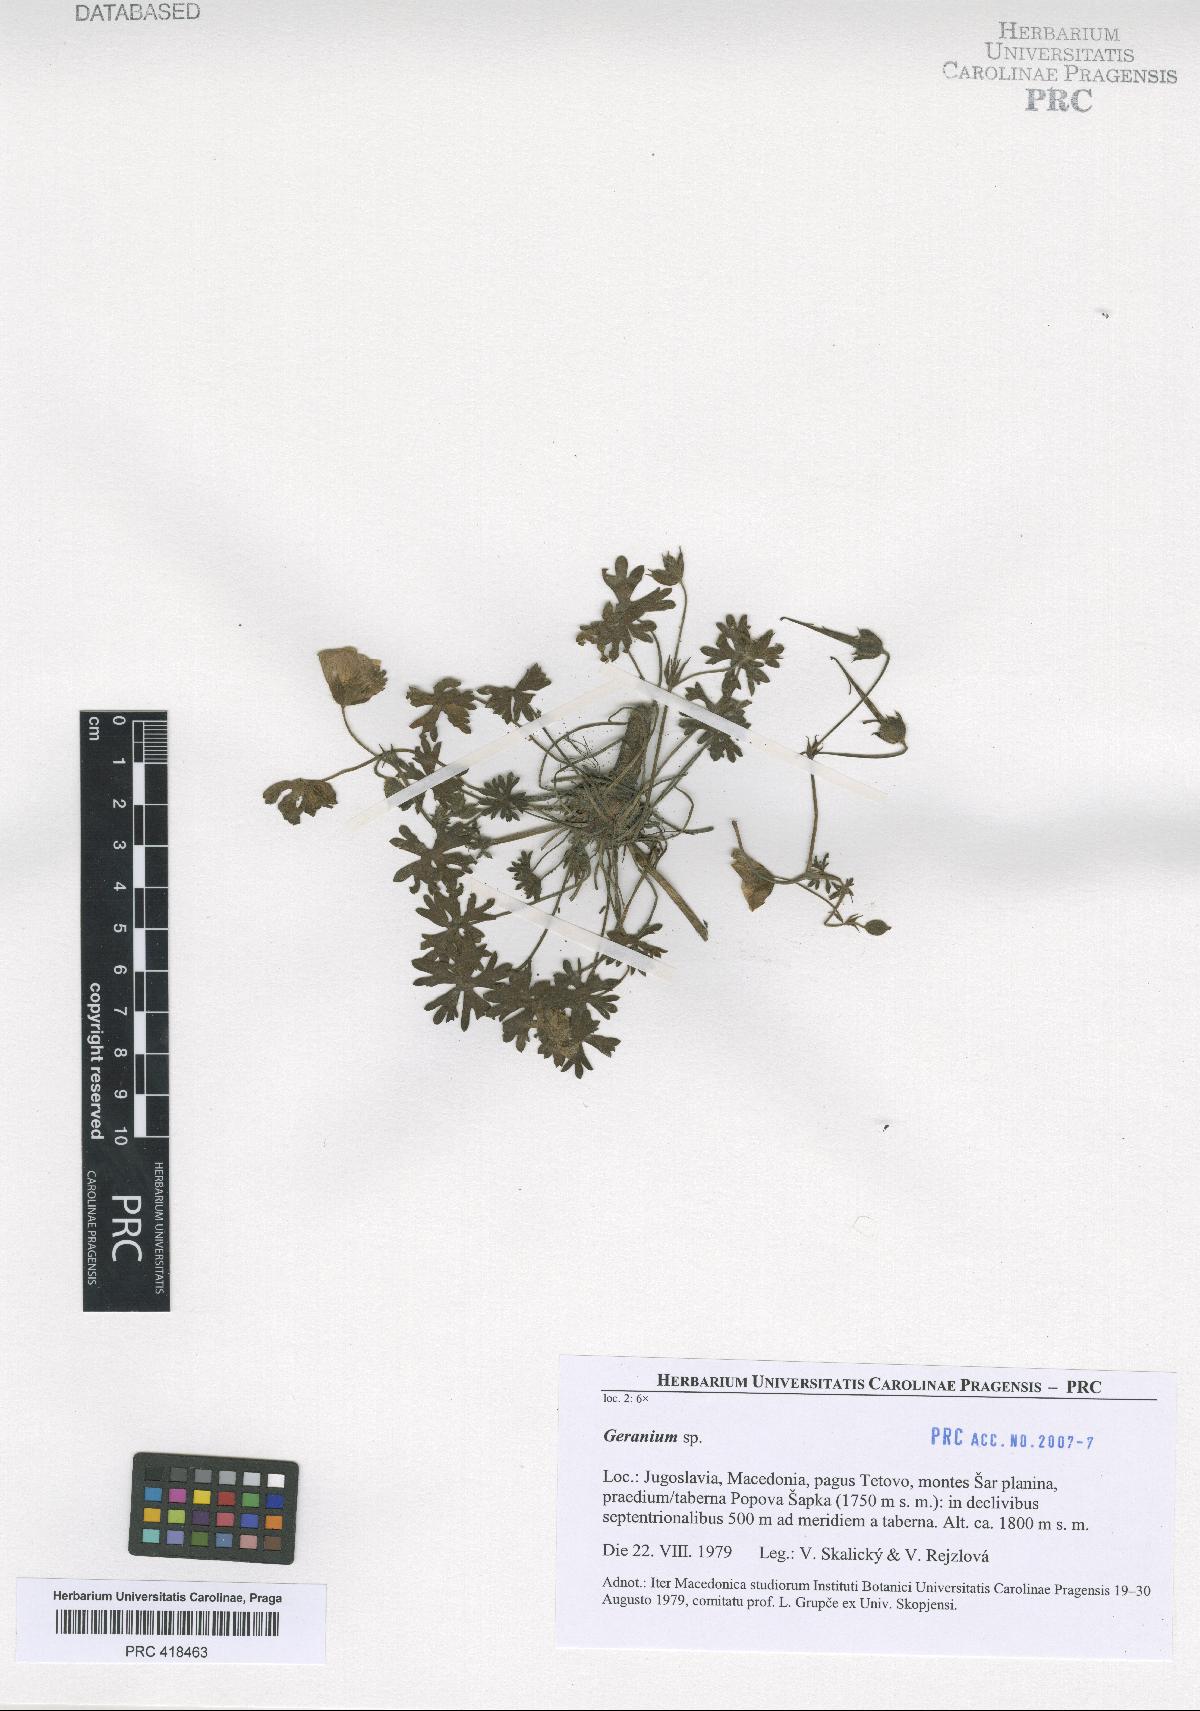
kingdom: Plantae
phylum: Tracheophyta
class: Magnoliopsida
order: Geraniales
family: Geraniaceae
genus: Geranium
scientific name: Geranium subcaulescens
